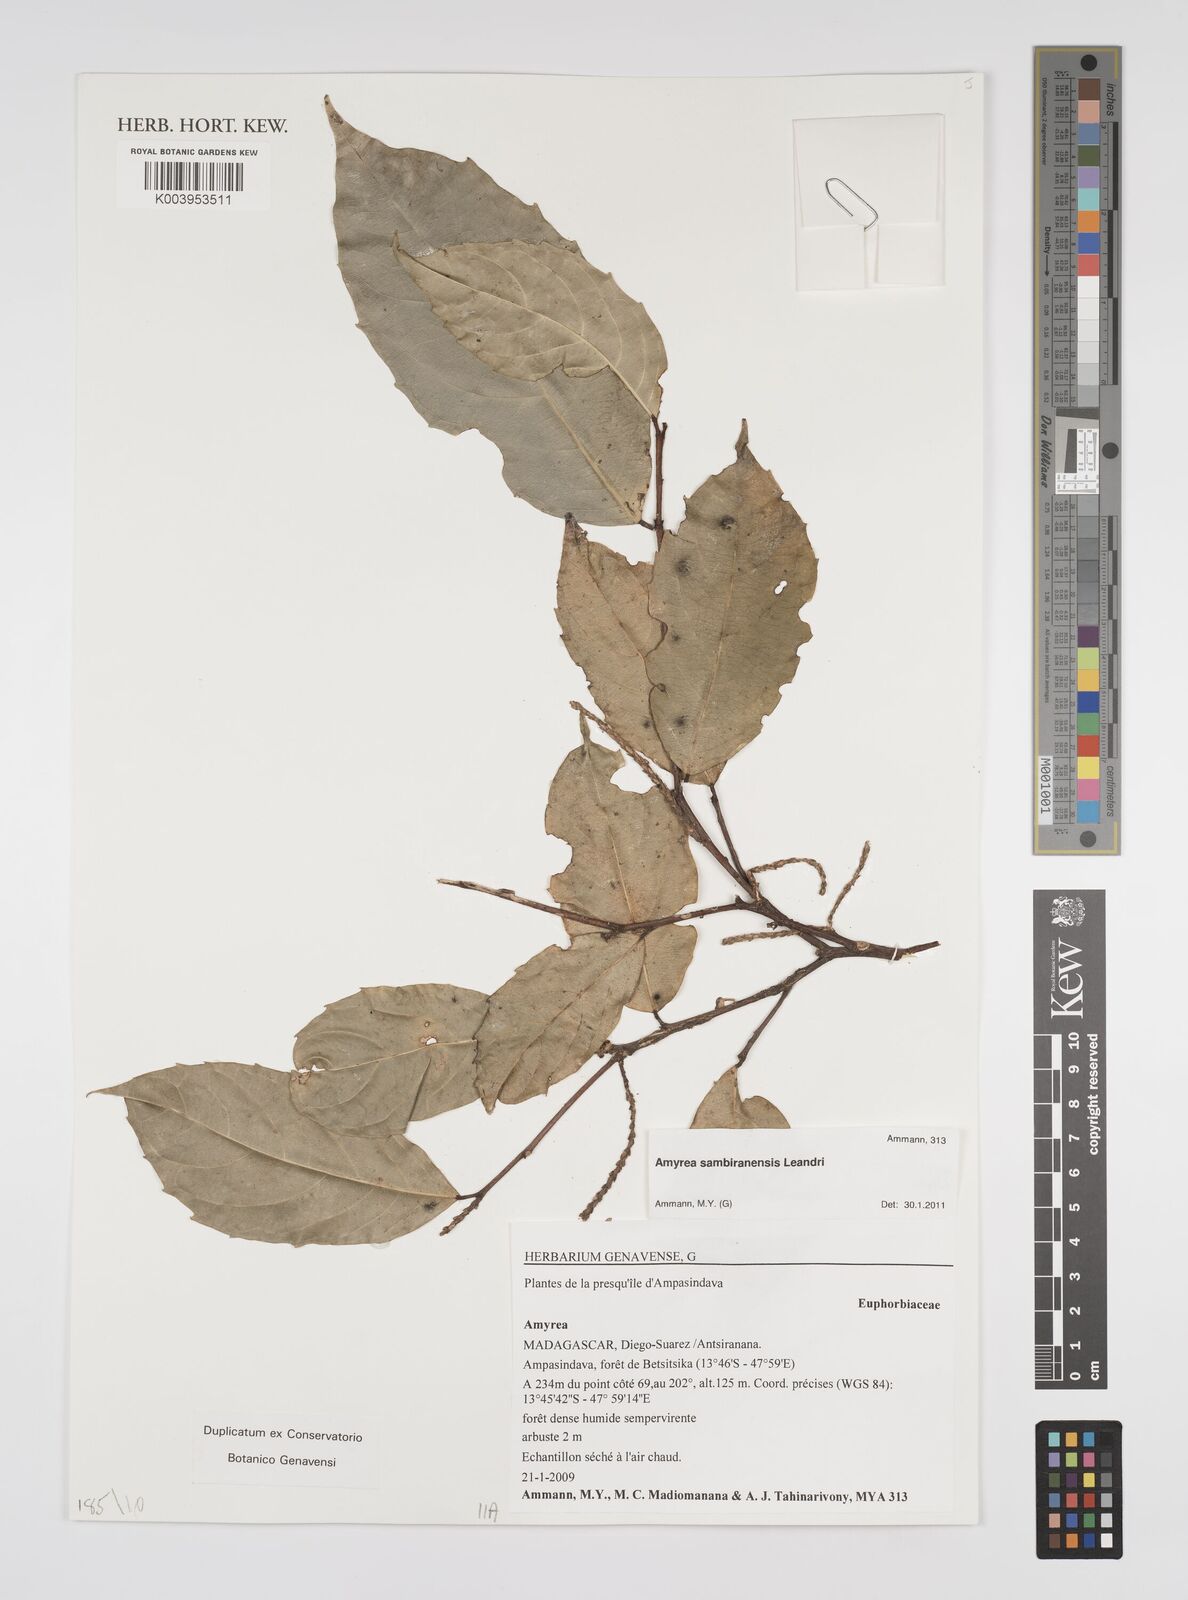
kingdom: Plantae
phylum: Tracheophyta
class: Magnoliopsida
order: Malpighiales
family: Euphorbiaceae
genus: Amyrea
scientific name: Amyrea sambiranensis
